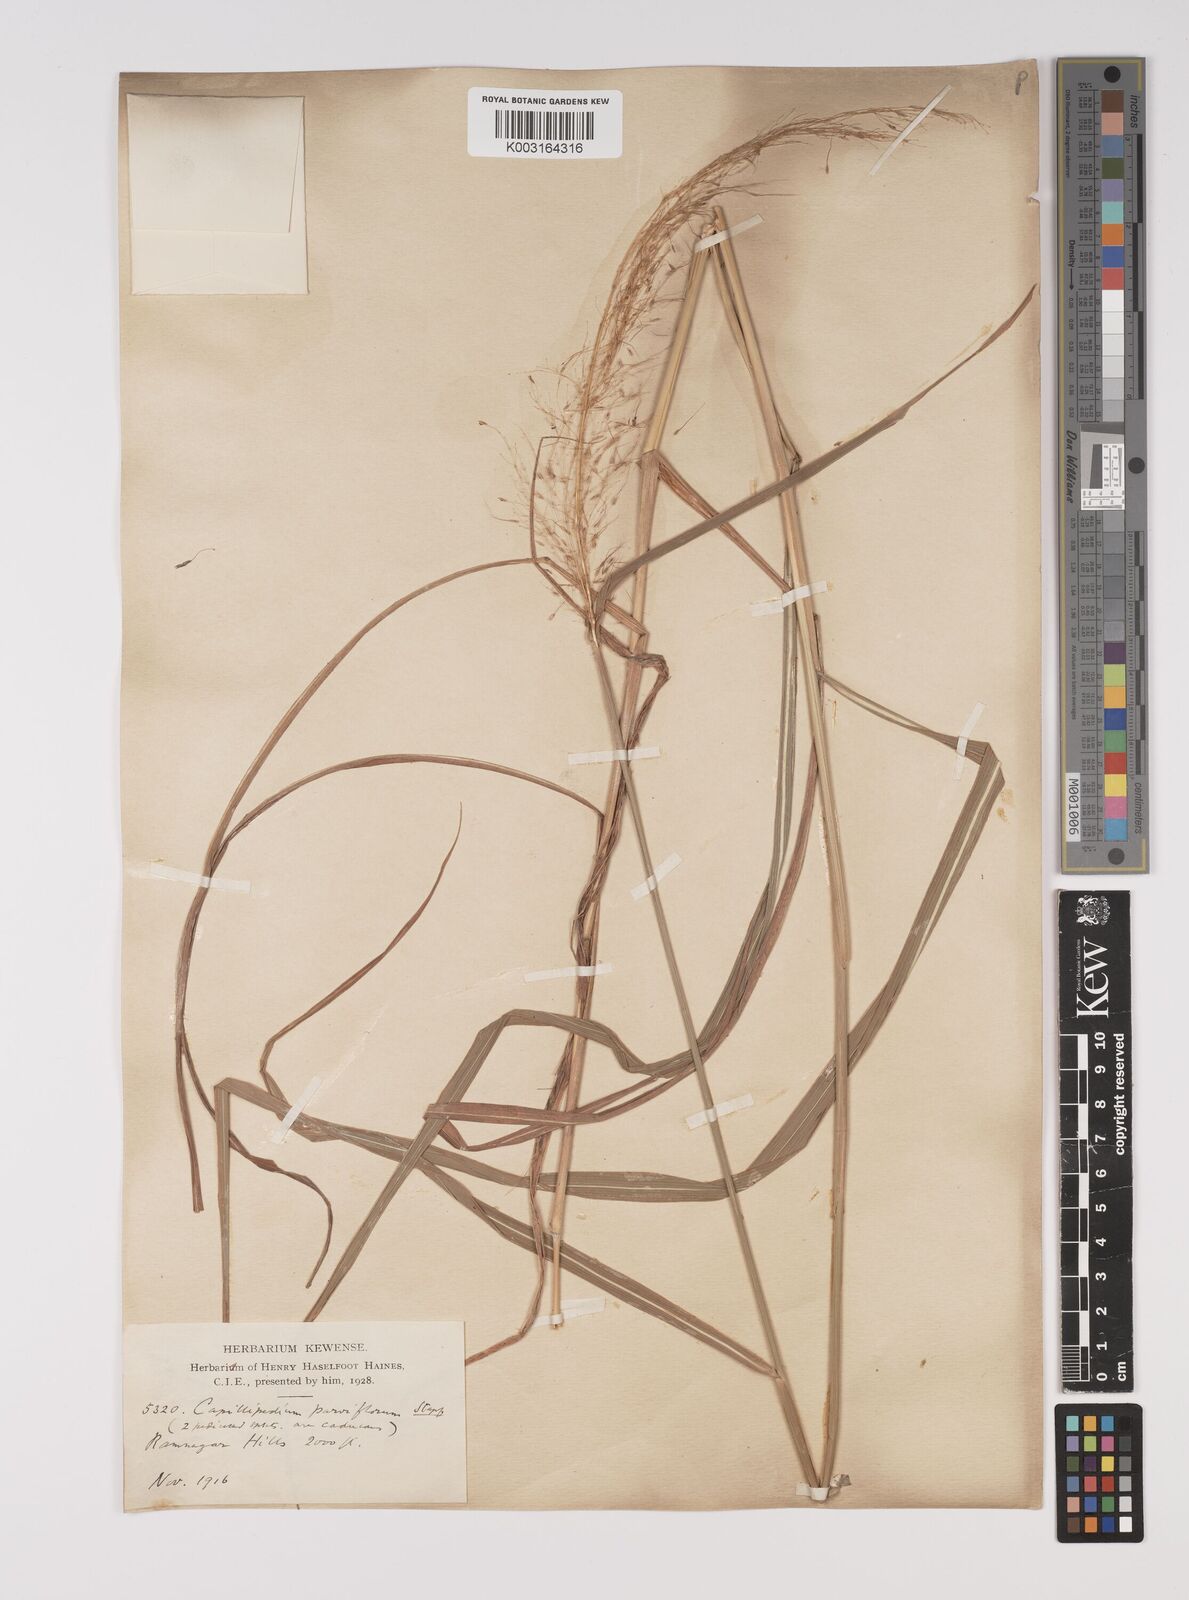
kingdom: Plantae
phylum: Tracheophyta
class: Liliopsida
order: Poales
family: Poaceae
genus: Capillipedium
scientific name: Capillipedium parviflorum
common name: Golden-beard
